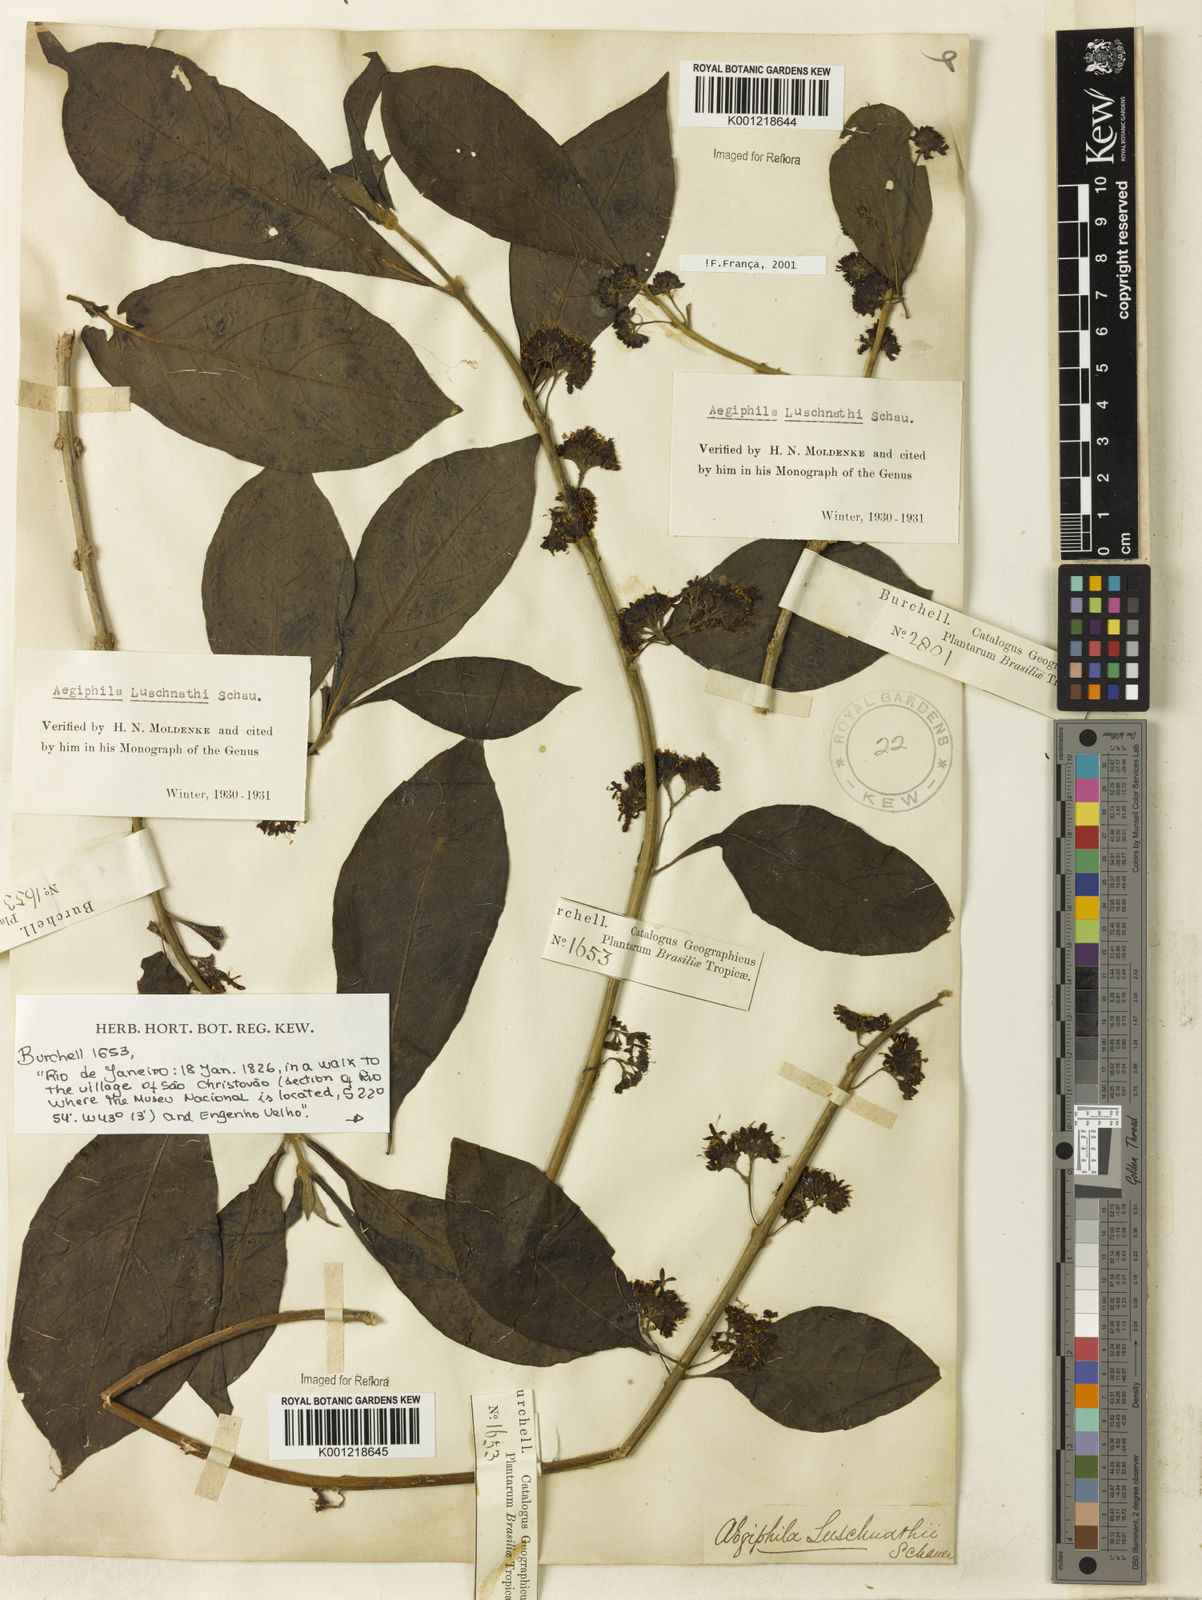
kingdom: Plantae
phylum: Tracheophyta
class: Magnoliopsida
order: Lamiales
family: Lamiaceae
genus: Aegiphila
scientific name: Aegiphila luschnathii
